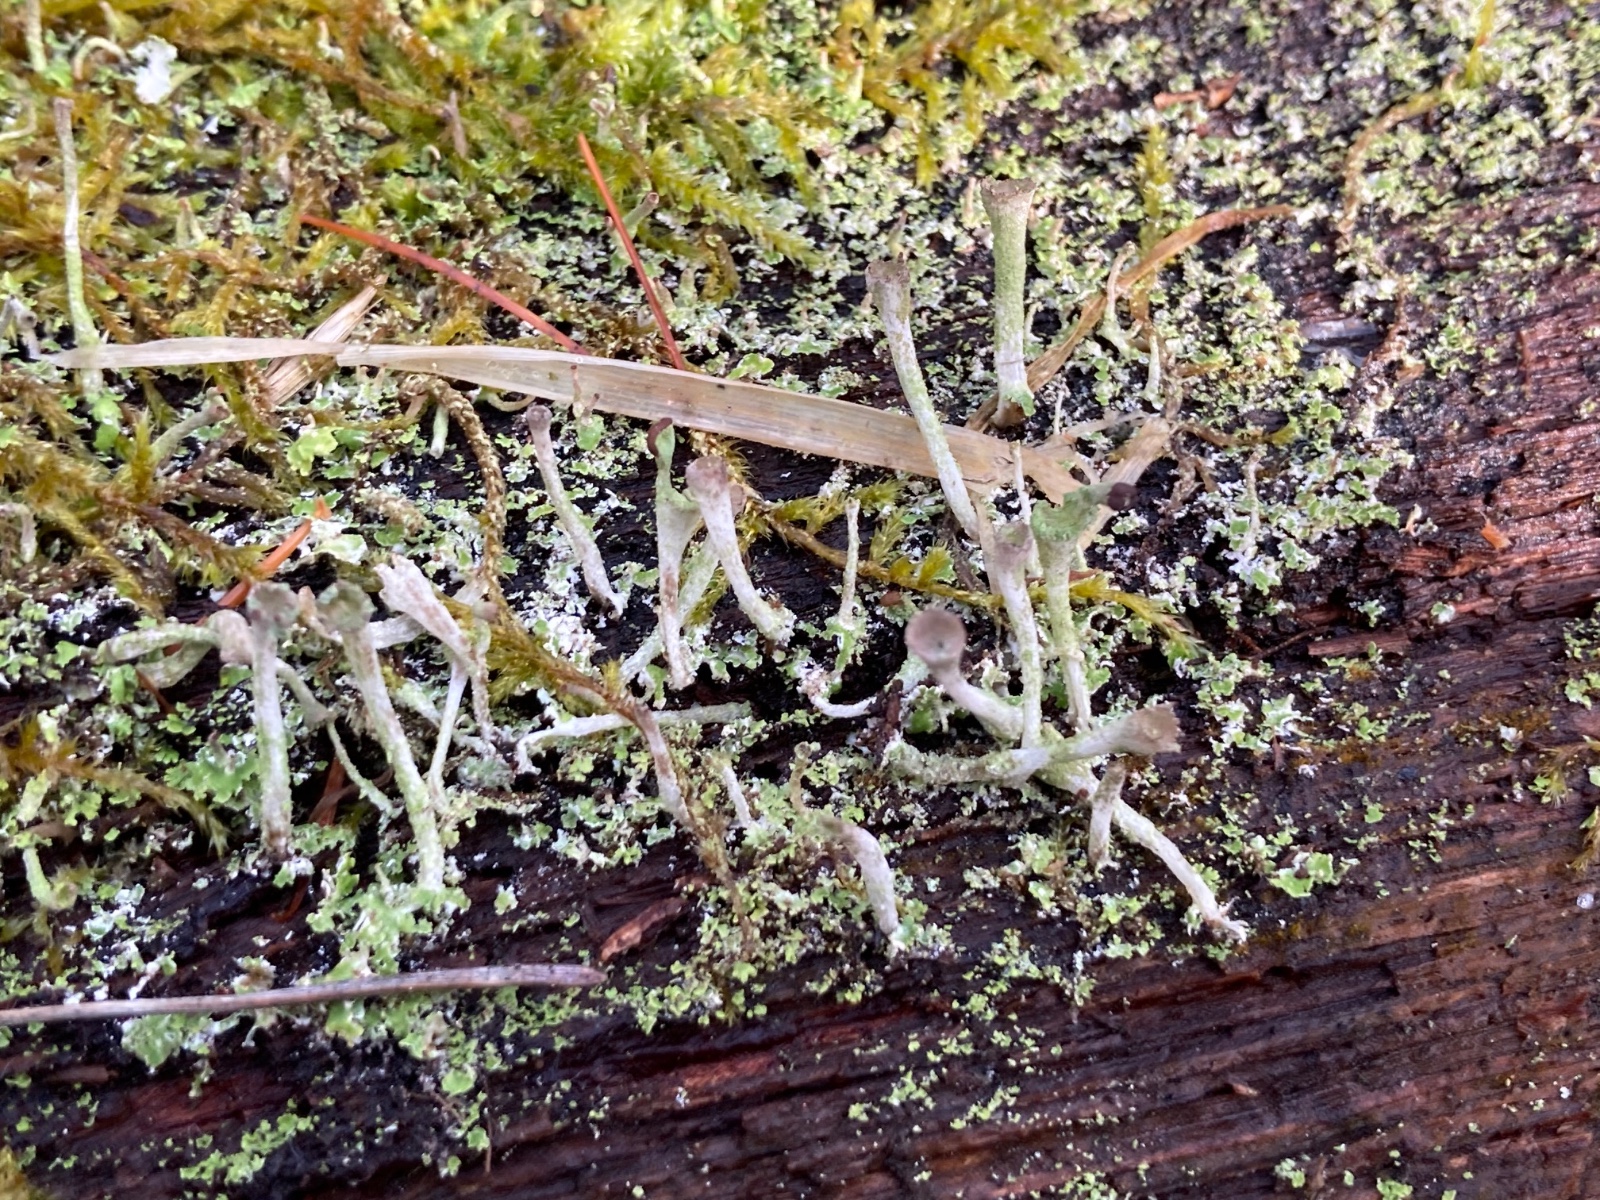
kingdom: Fungi
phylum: Ascomycota
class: Lecanoromycetes
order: Lecanorales
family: Cladoniaceae
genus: Cladonia
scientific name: Cladonia
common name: brungrøn bægerlav
